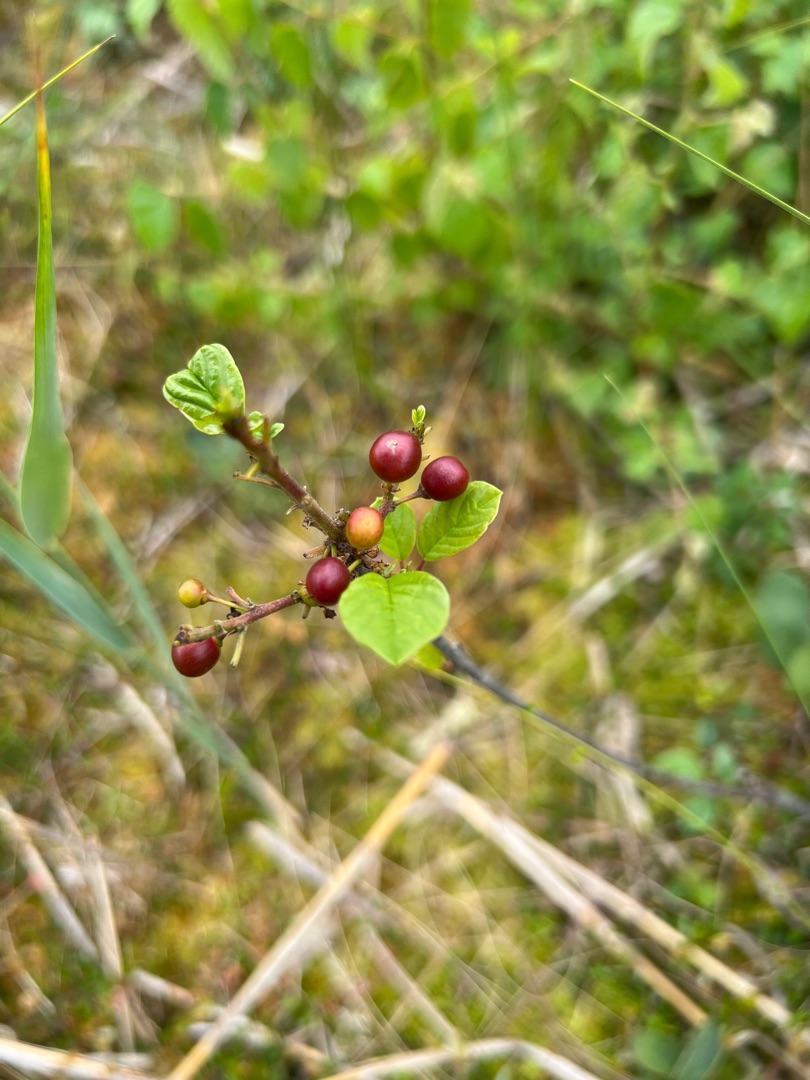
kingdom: Plantae
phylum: Tracheophyta
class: Magnoliopsida
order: Rosales
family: Rhamnaceae
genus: Frangula
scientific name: Frangula alnus
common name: Tørst
